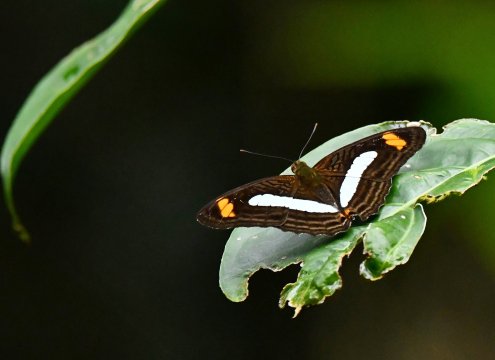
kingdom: Animalia
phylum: Arthropoda
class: Insecta
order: Lepidoptera
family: Nymphalidae
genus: Limenitis
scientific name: Limenitis Adelpha iphiclus
